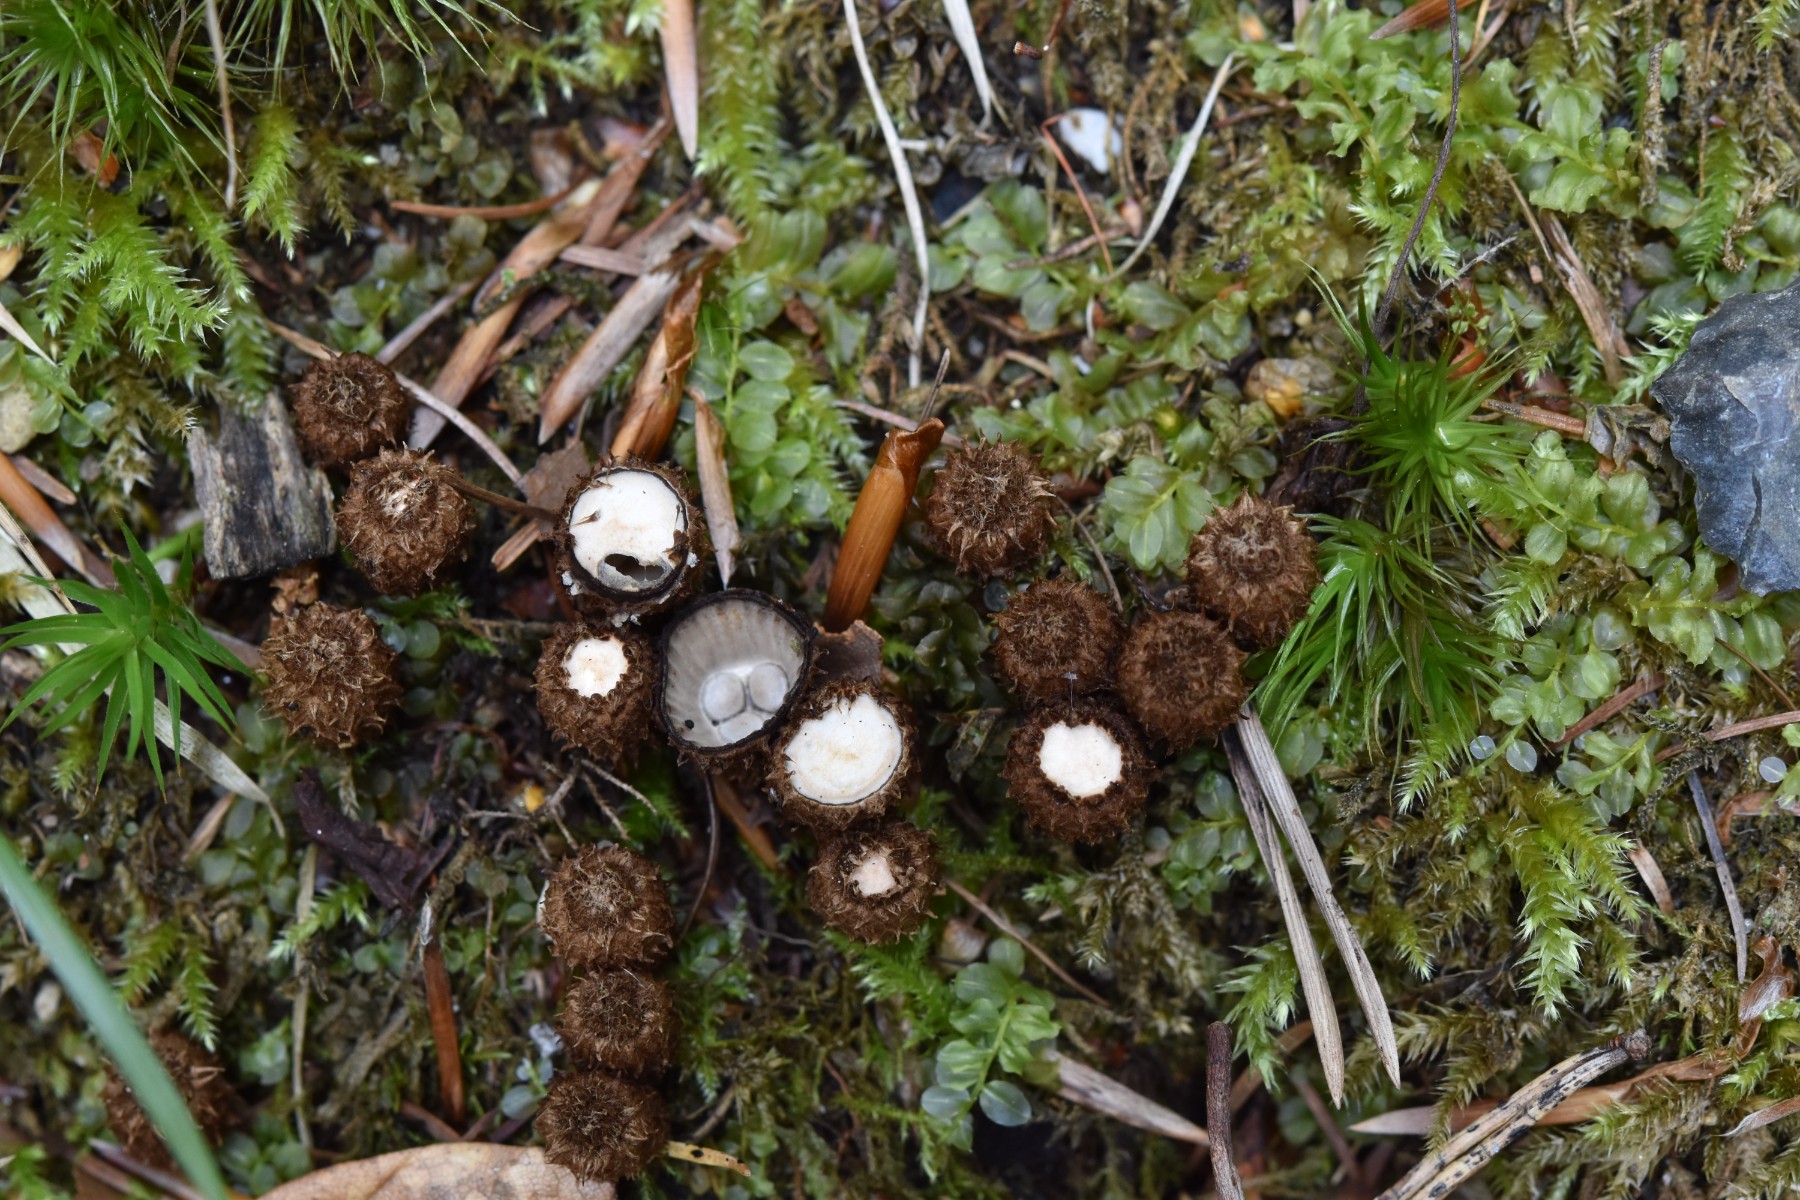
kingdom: Fungi
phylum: Basidiomycota
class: Agaricomycetes
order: Agaricales
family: Agaricaceae
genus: Cyathus
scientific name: Cyathus striatus
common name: stribet redesvamp
